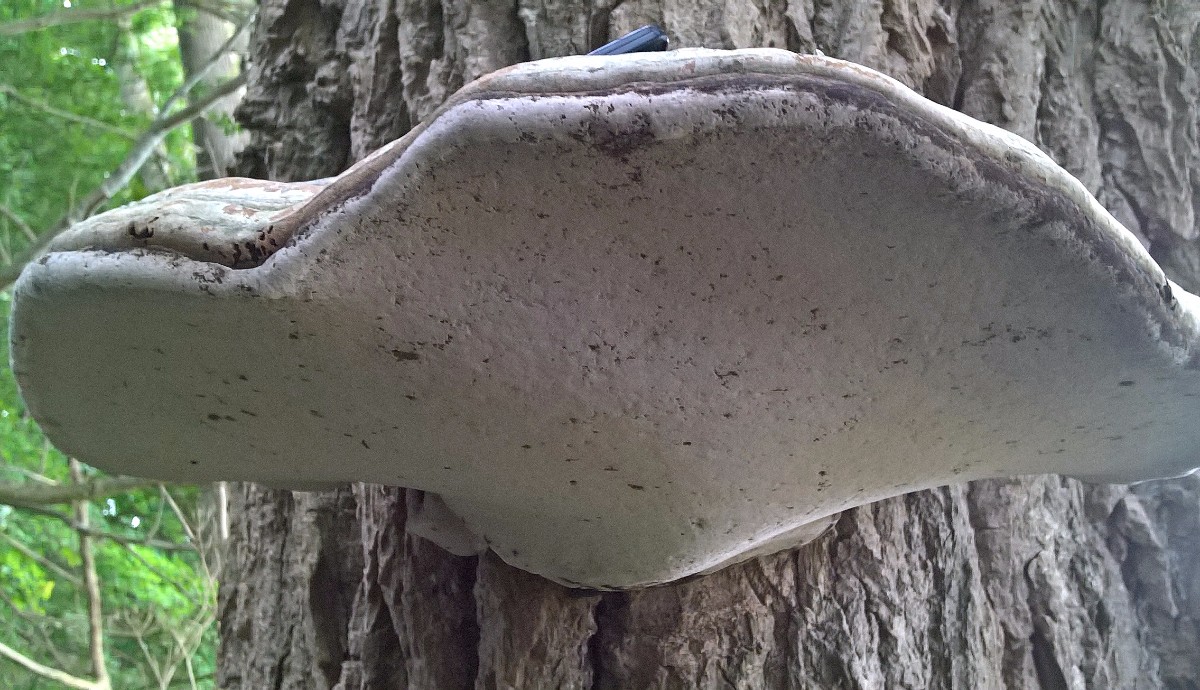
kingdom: Fungi
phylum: Basidiomycota
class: Agaricomycetes
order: Polyporales
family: Polyporaceae
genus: Fomes
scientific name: Fomes fomentarius
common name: tøndersvamp
